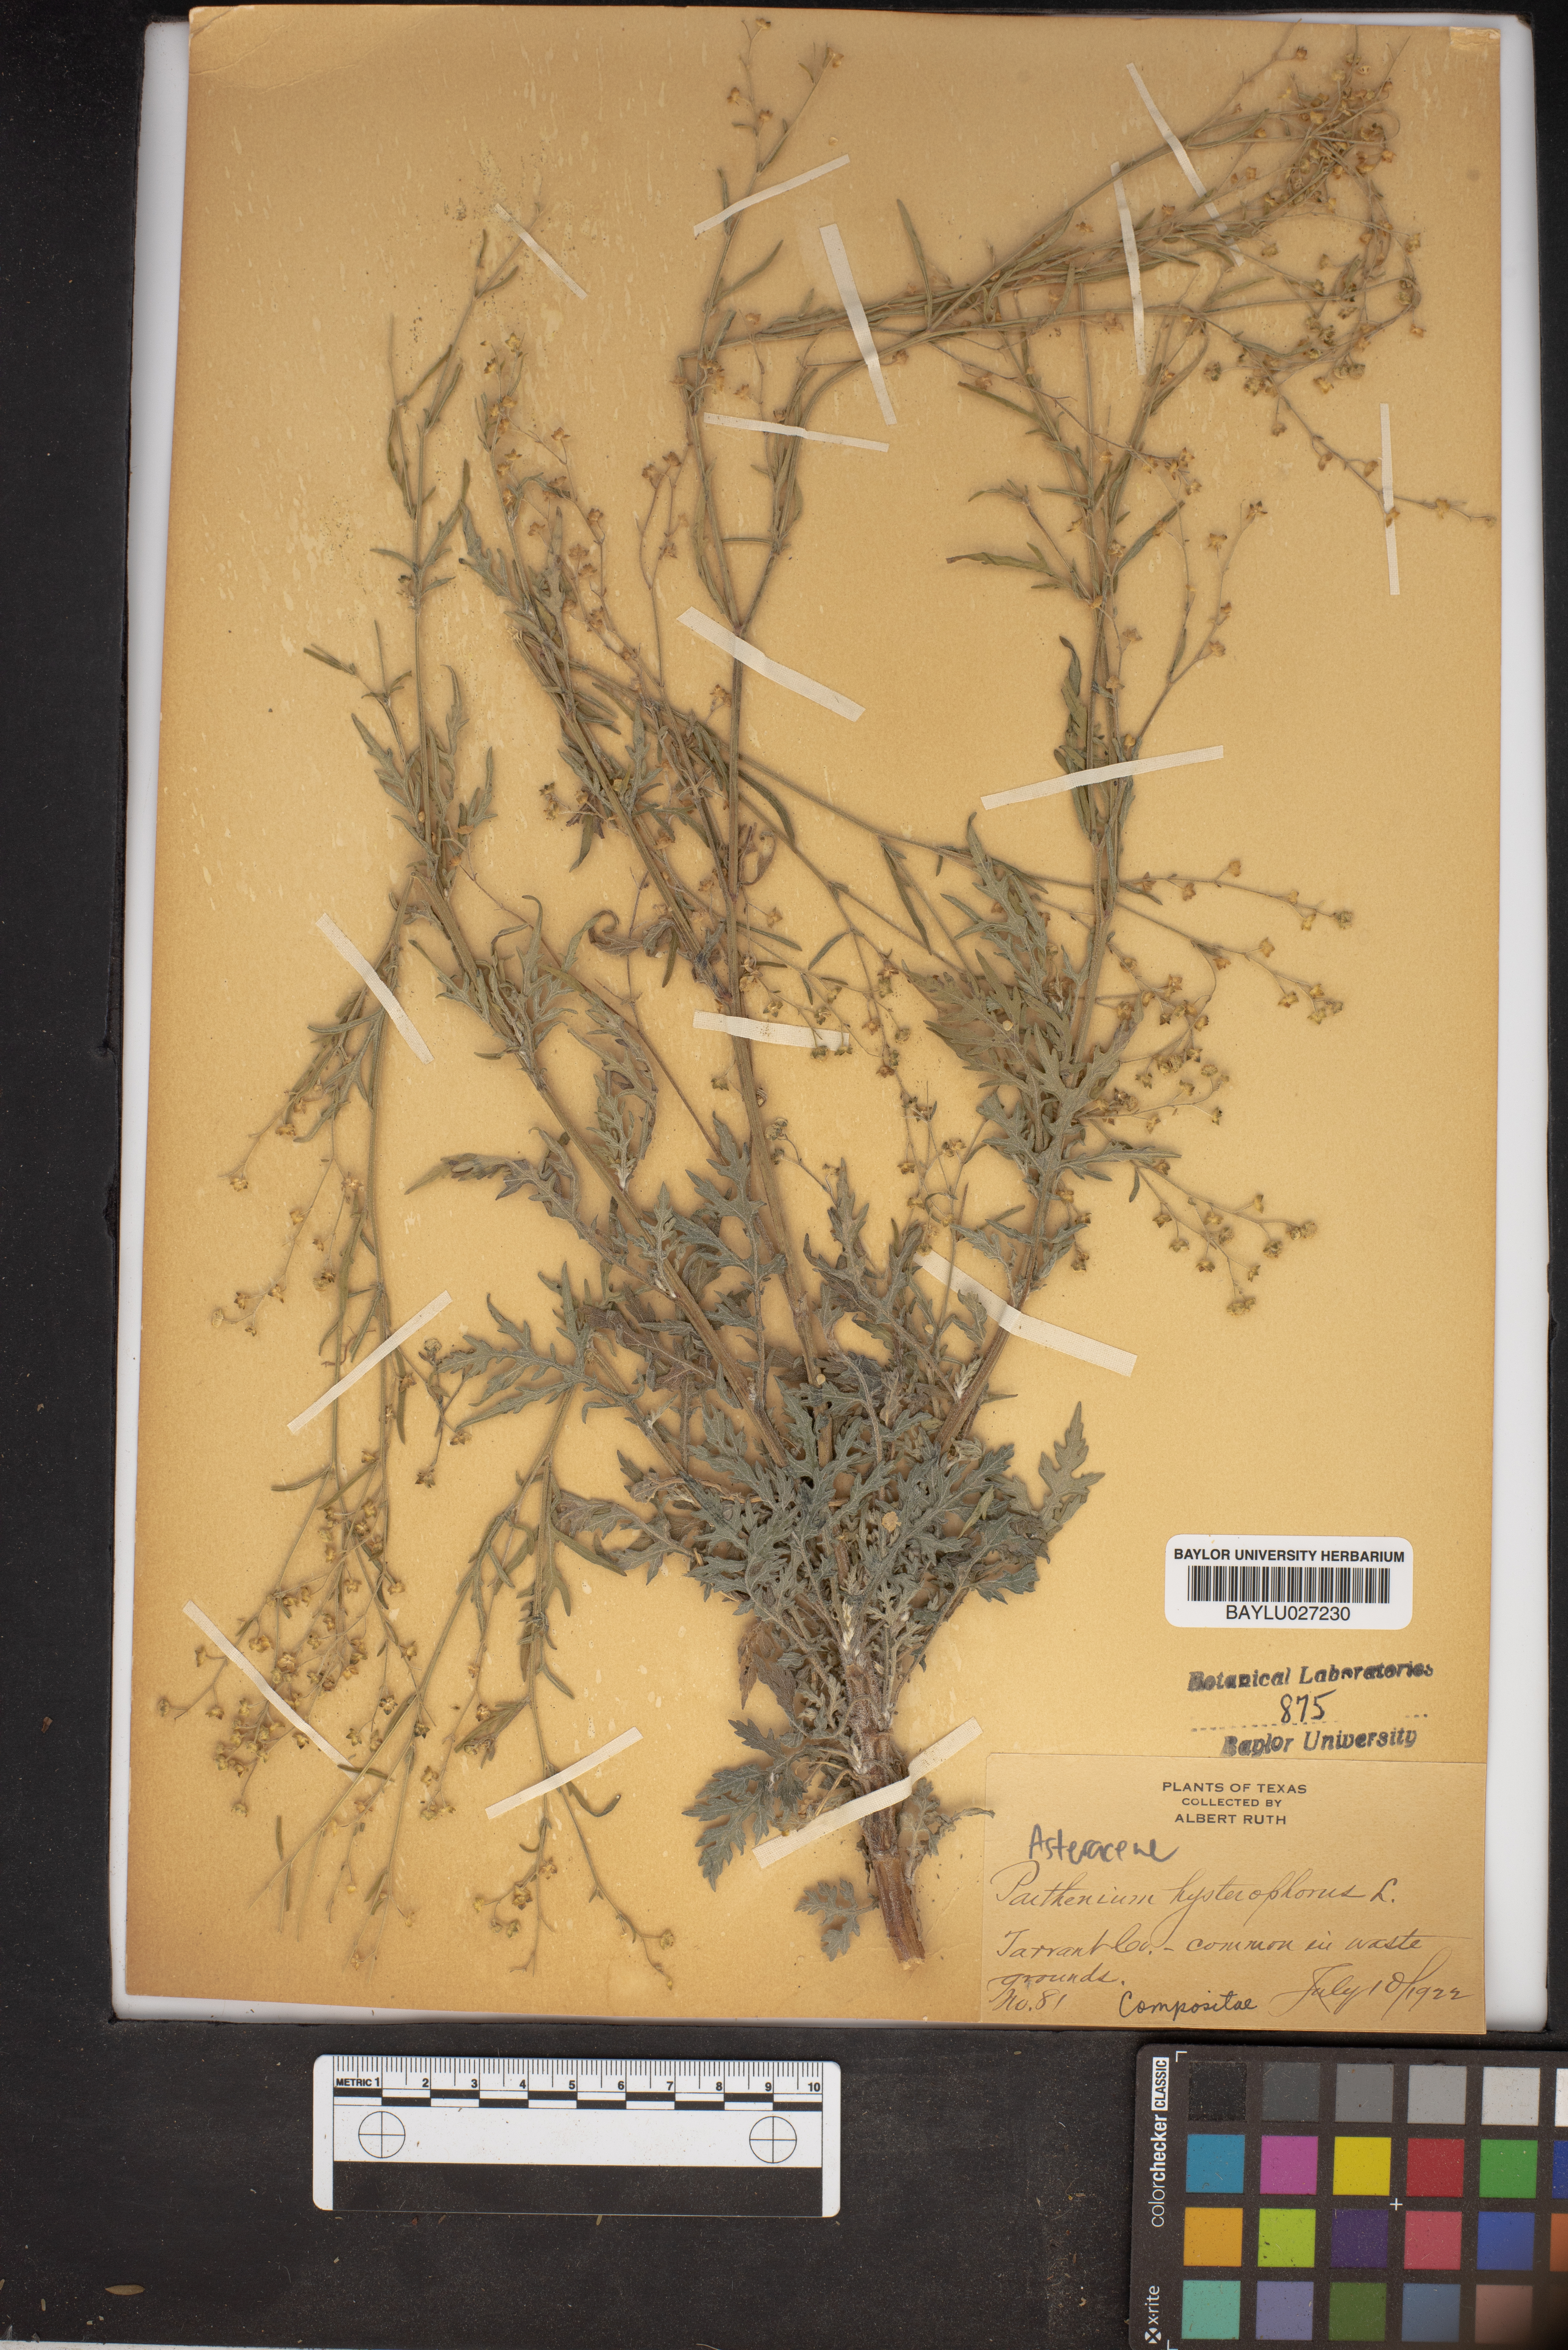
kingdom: Plantae
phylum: Tracheophyta
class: Magnoliopsida
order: Asterales
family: Asteraceae
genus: Parthenium
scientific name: Parthenium hysterophorus
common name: Santa maria feverfew
